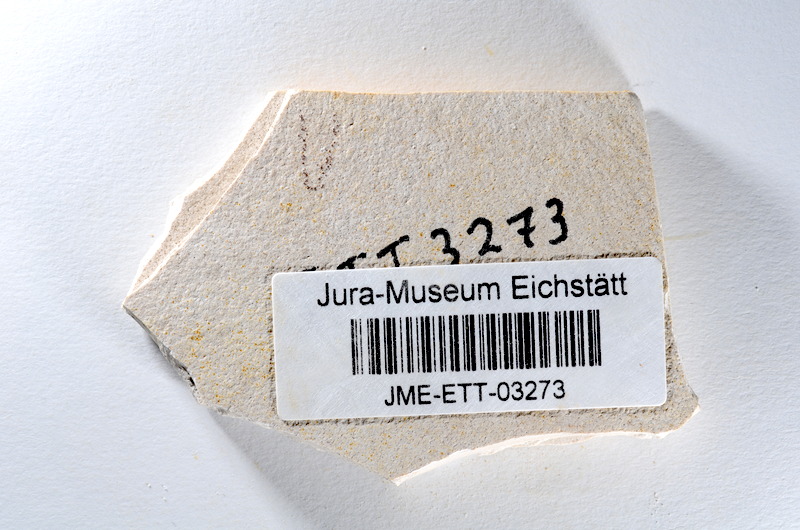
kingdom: Animalia
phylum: Chordata
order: Salmoniformes
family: Orthogonikleithridae
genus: Orthogonikleithrus
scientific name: Orthogonikleithrus hoelli
